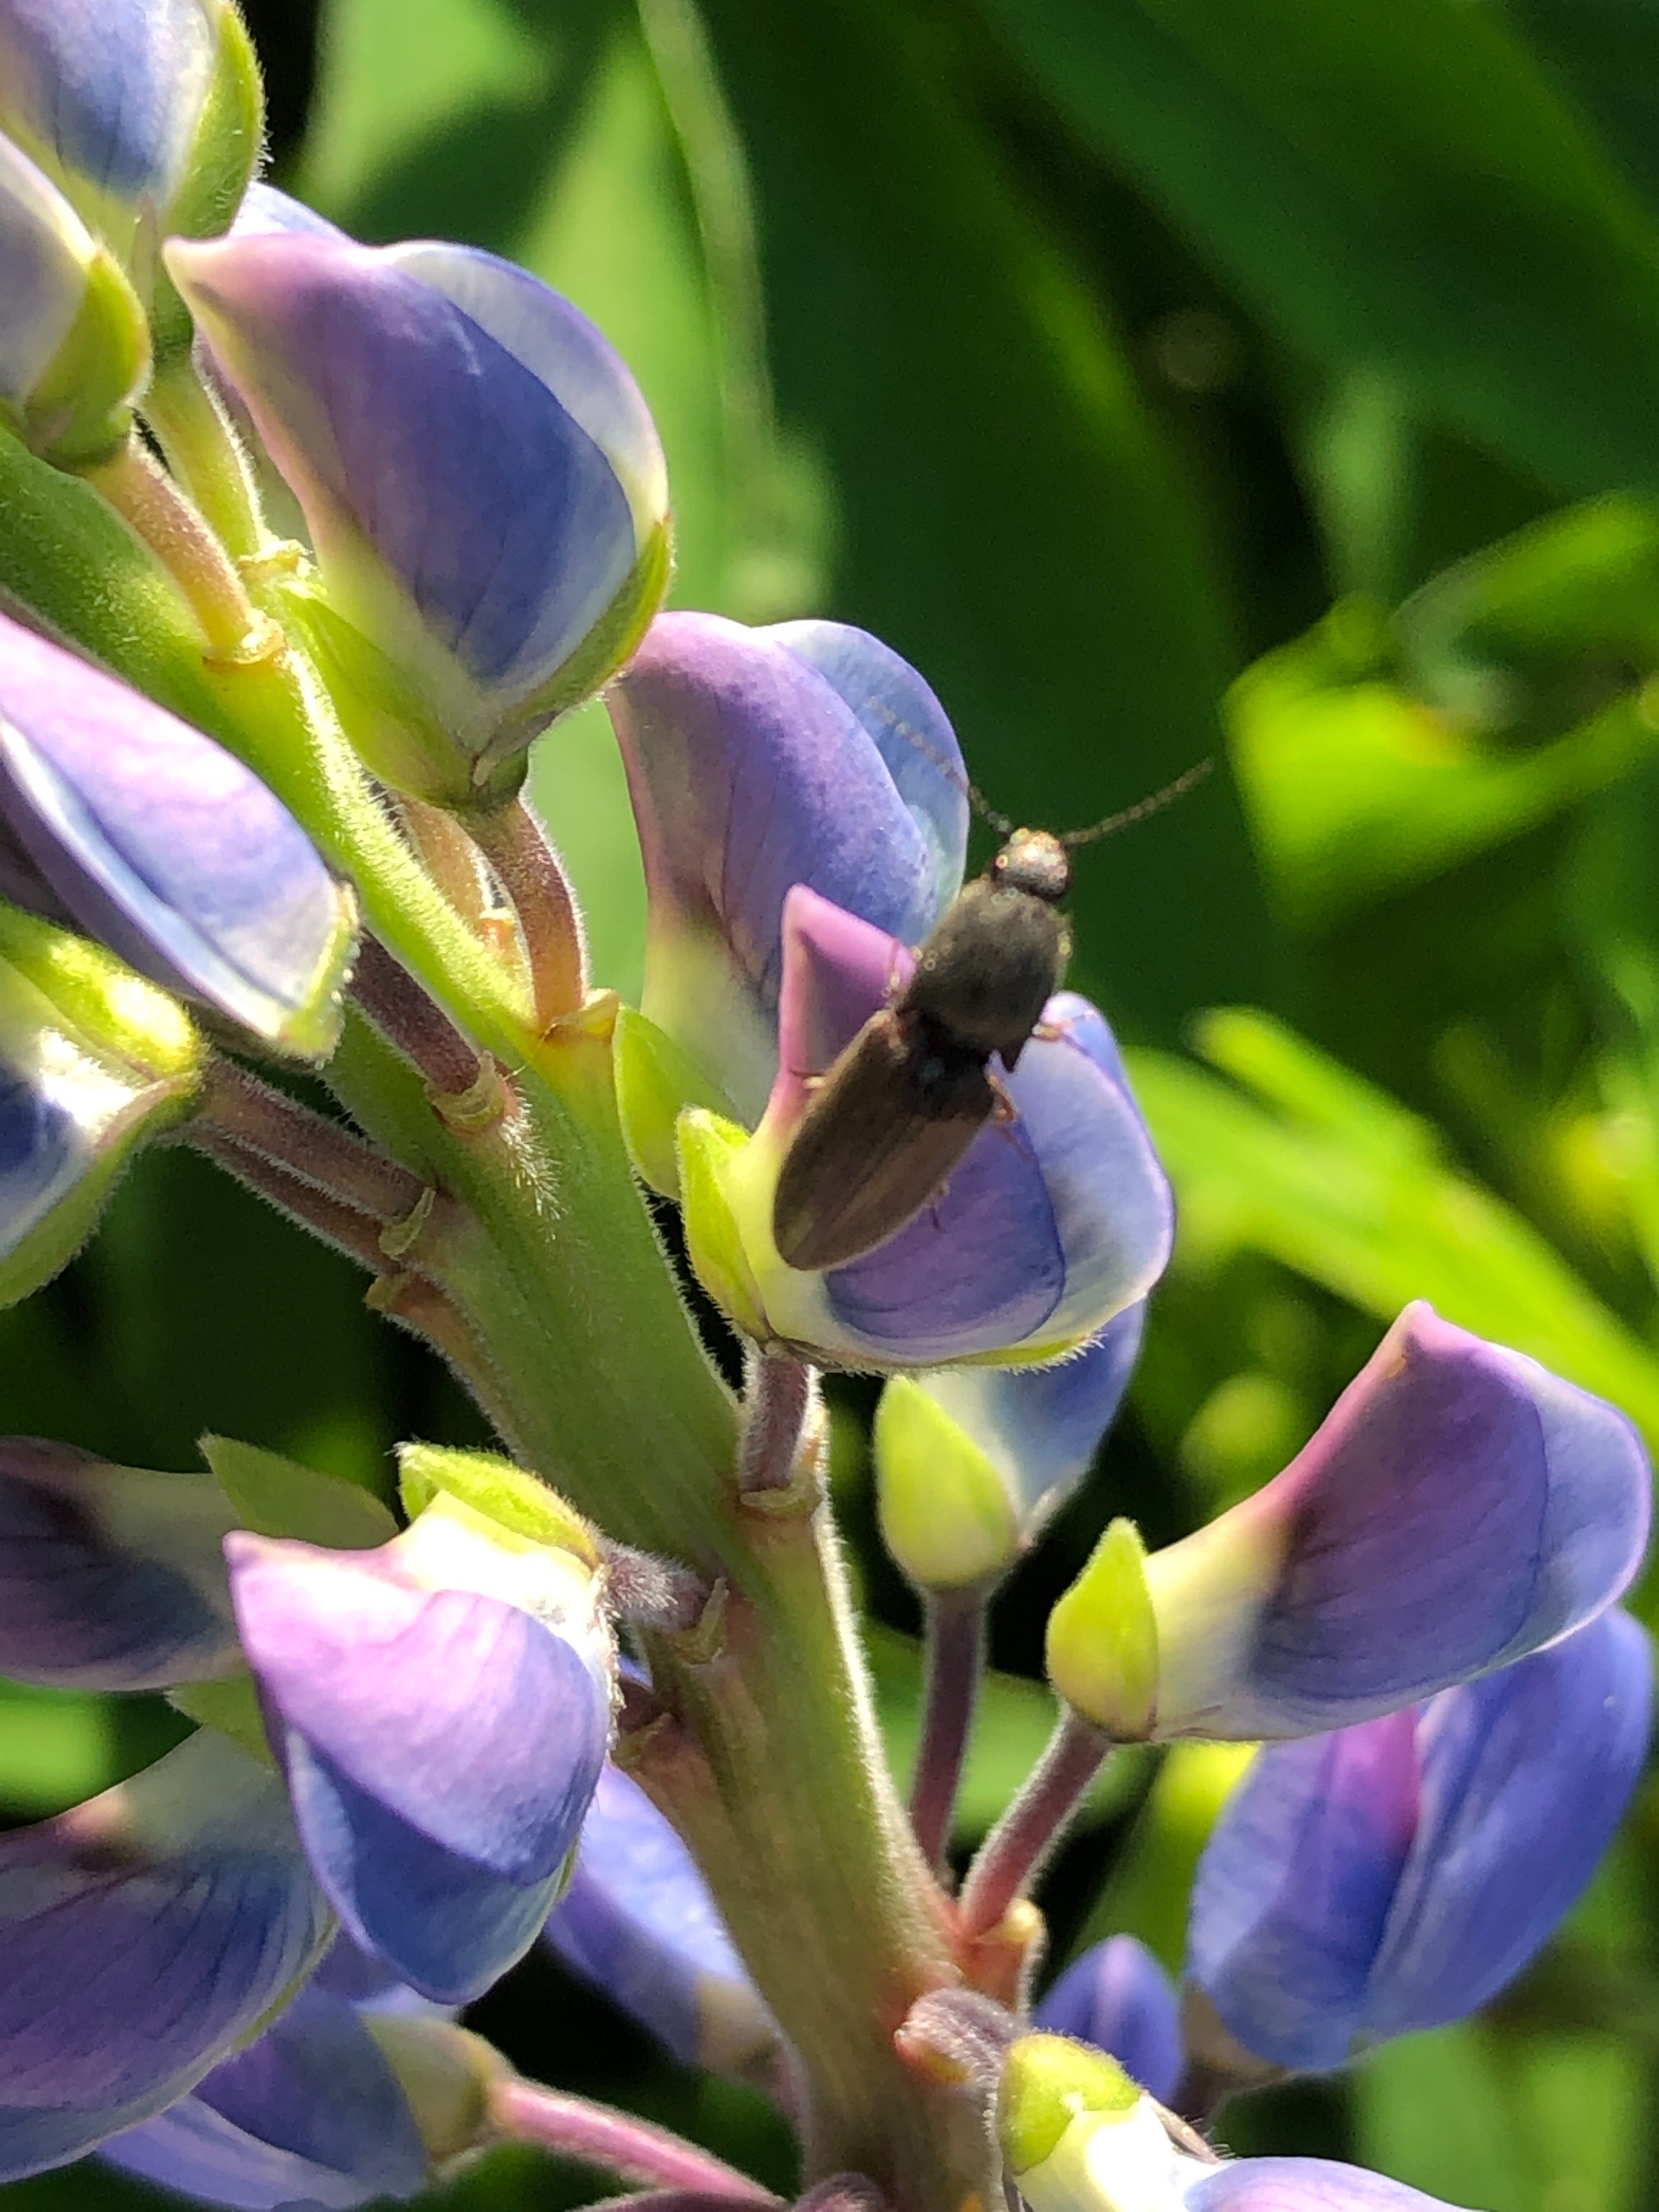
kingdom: Animalia
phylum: Arthropoda
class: Insecta
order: Coleoptera
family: Elateridae
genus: Athous
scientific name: Athous haemorrhoidalis
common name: Rødhalet busksmælder
